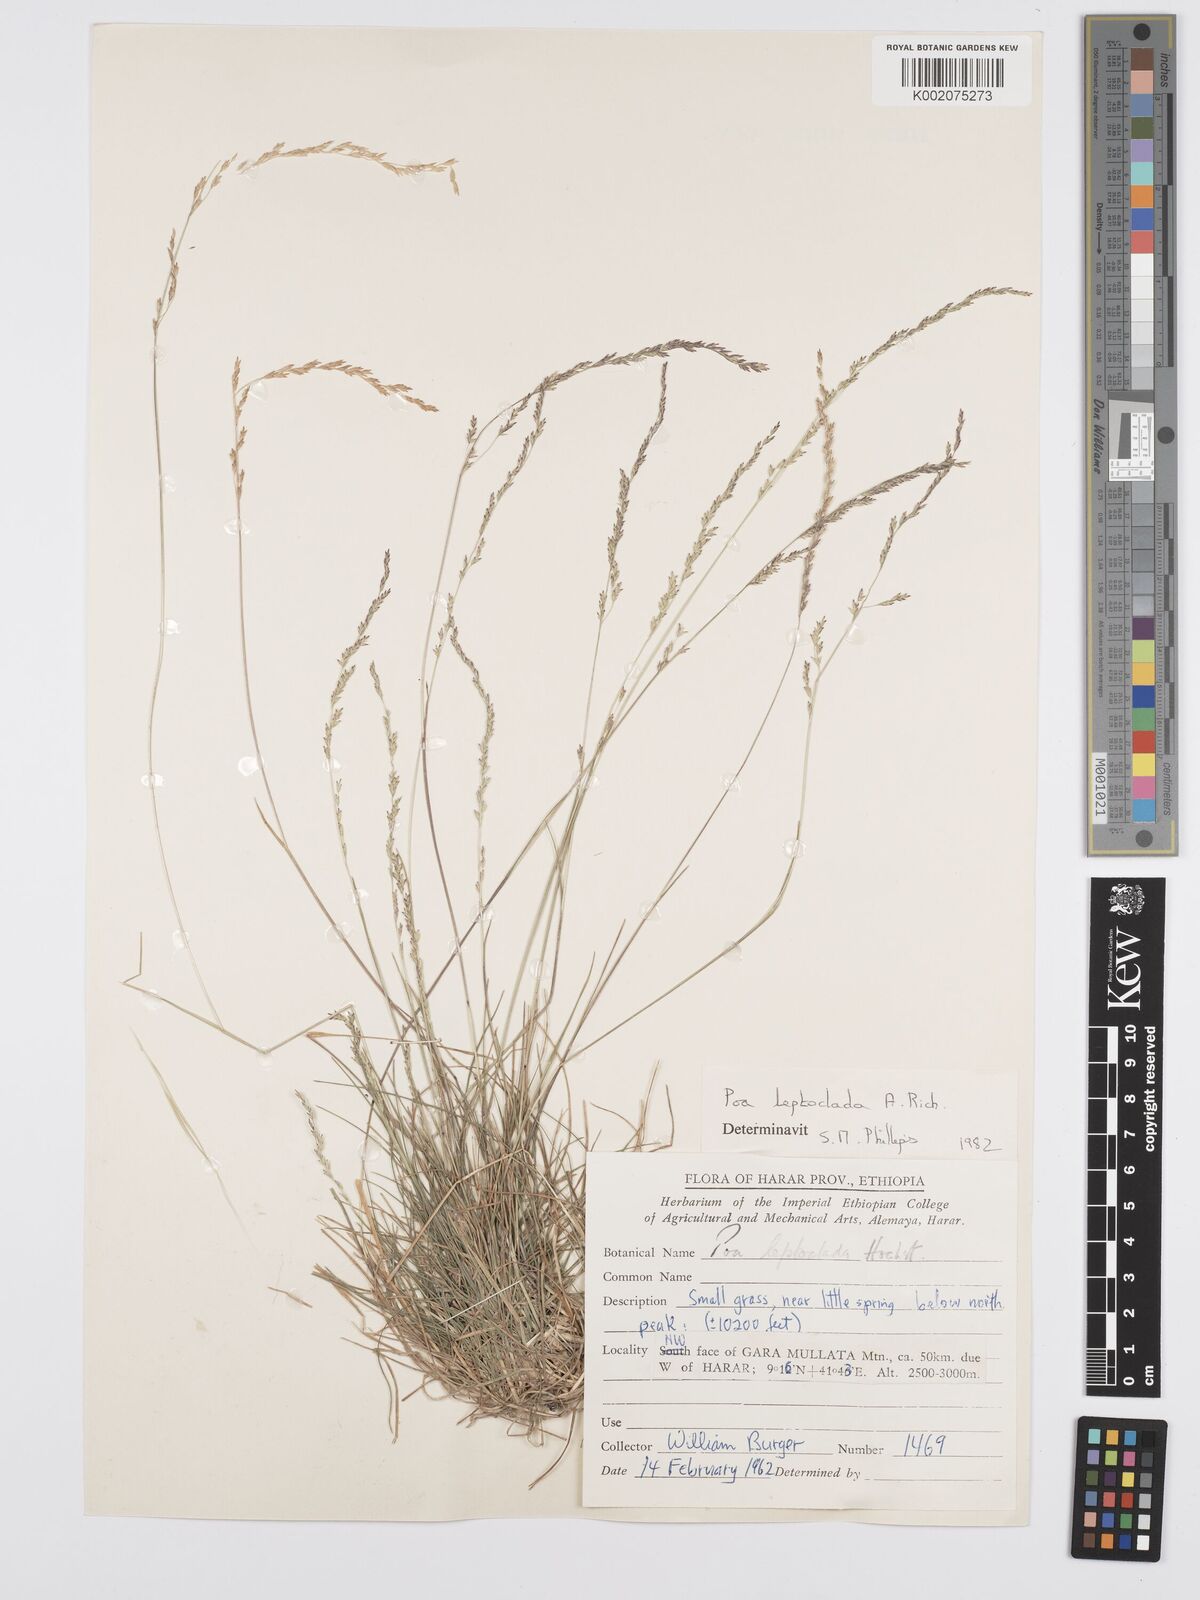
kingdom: Plantae
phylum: Tracheophyta
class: Liliopsida
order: Poales
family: Poaceae
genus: Poa
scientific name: Poa leptoclada
